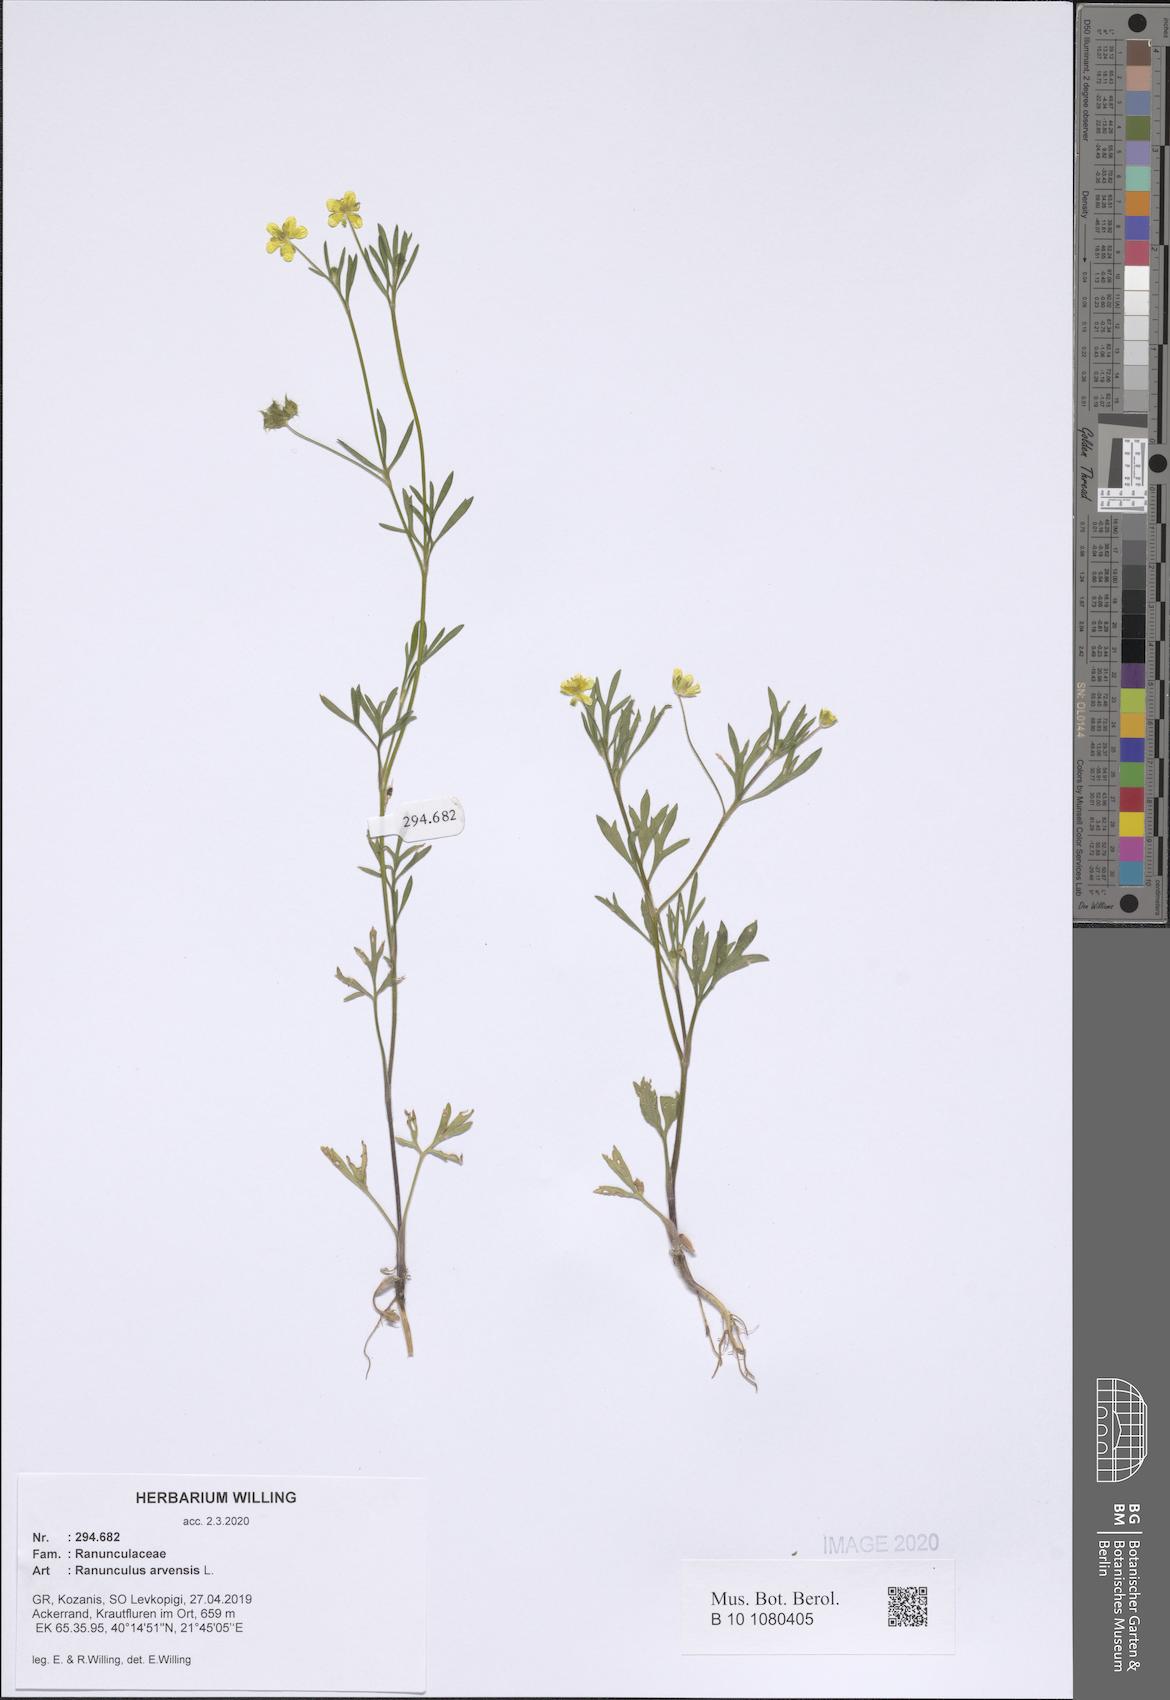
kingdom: Plantae
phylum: Tracheophyta
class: Magnoliopsida
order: Ranunculales
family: Ranunculaceae
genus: Ranunculus
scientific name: Ranunculus arvensis
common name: Corn buttercup
